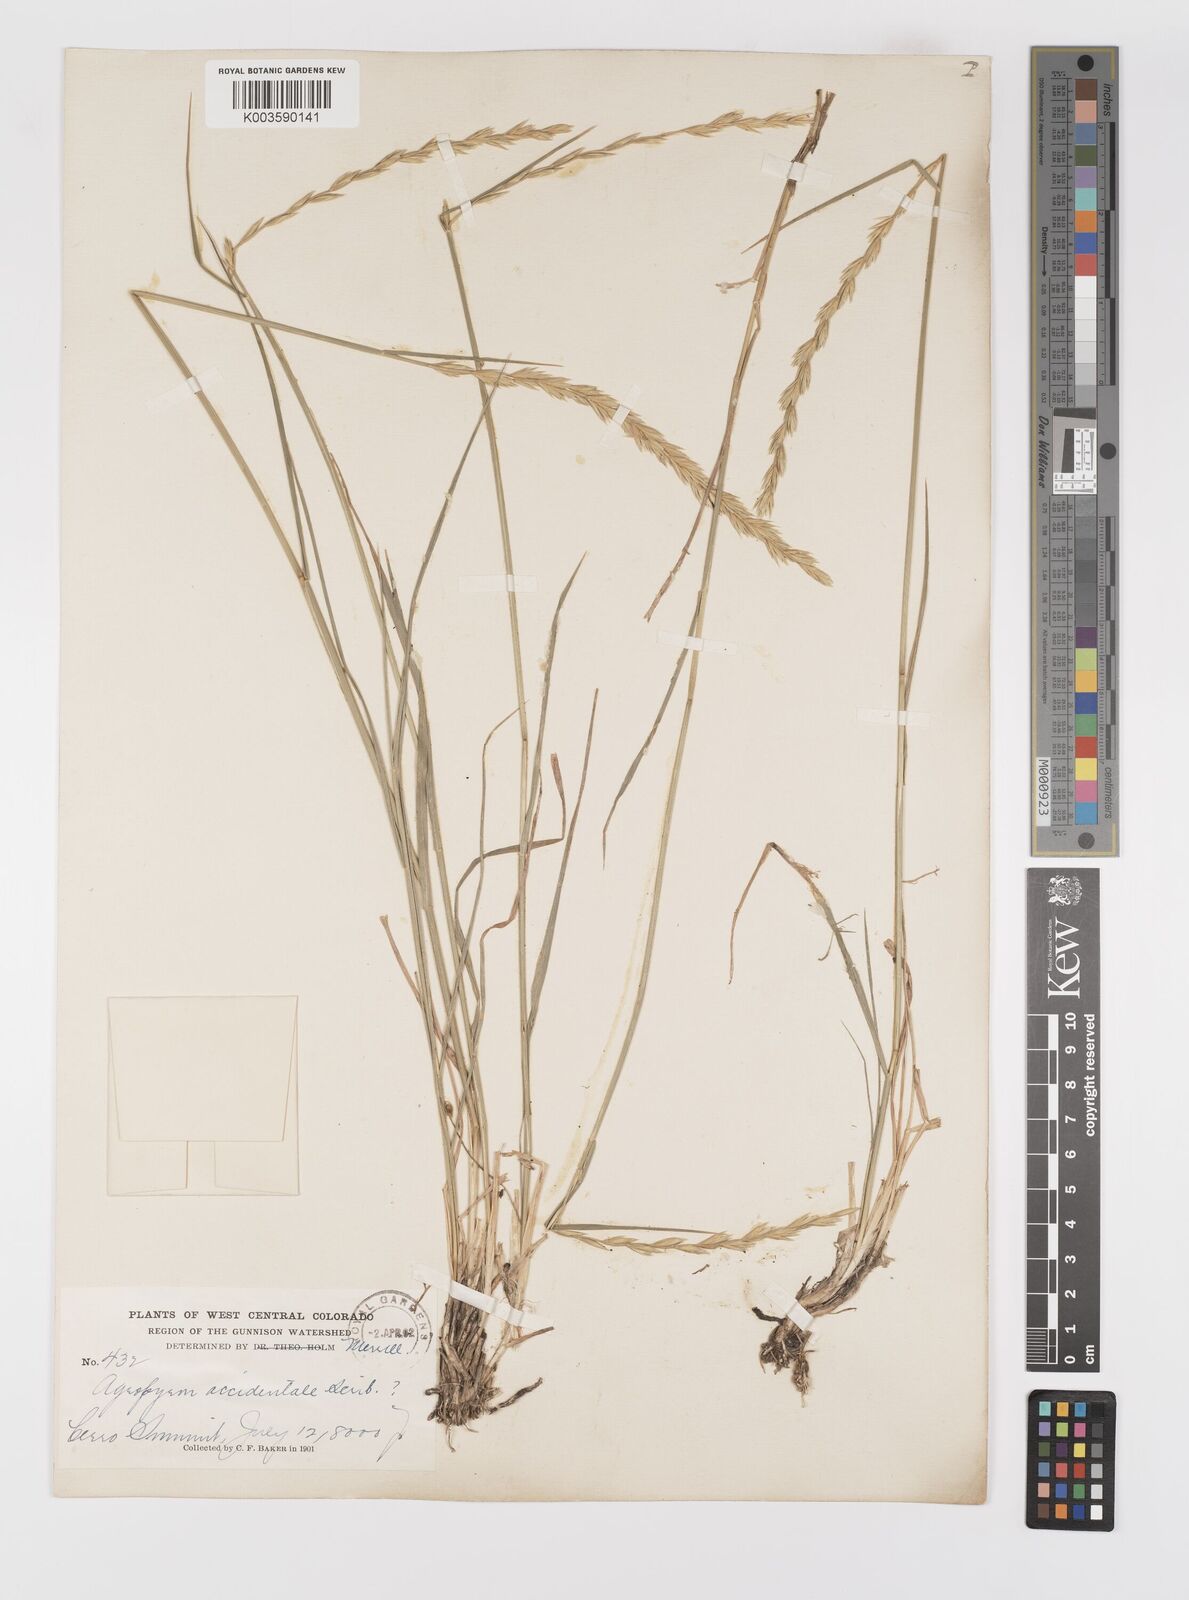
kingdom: Plantae
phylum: Tracheophyta
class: Liliopsida
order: Poales
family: Poaceae
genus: Elymus
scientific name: Elymus smithii
